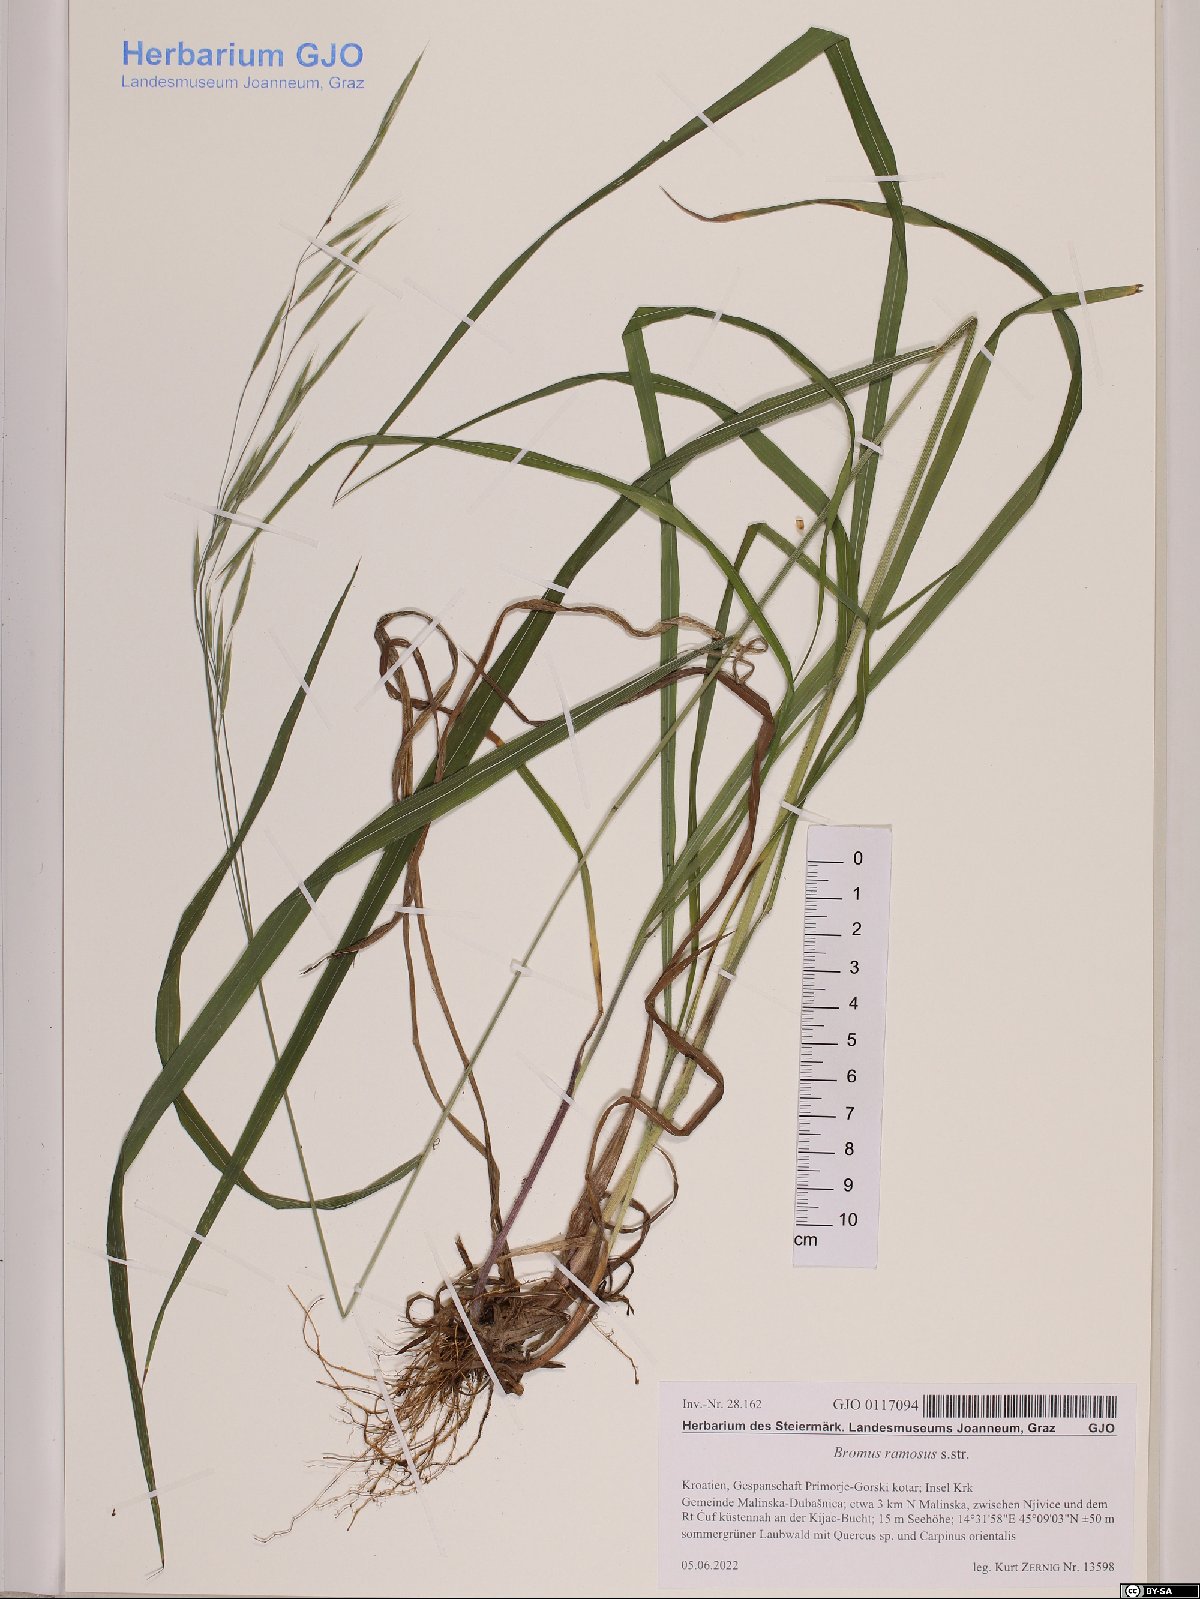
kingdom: Plantae
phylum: Tracheophyta
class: Liliopsida
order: Poales
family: Poaceae
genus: Bromus
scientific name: Bromus ramosus
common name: Hairy brome
